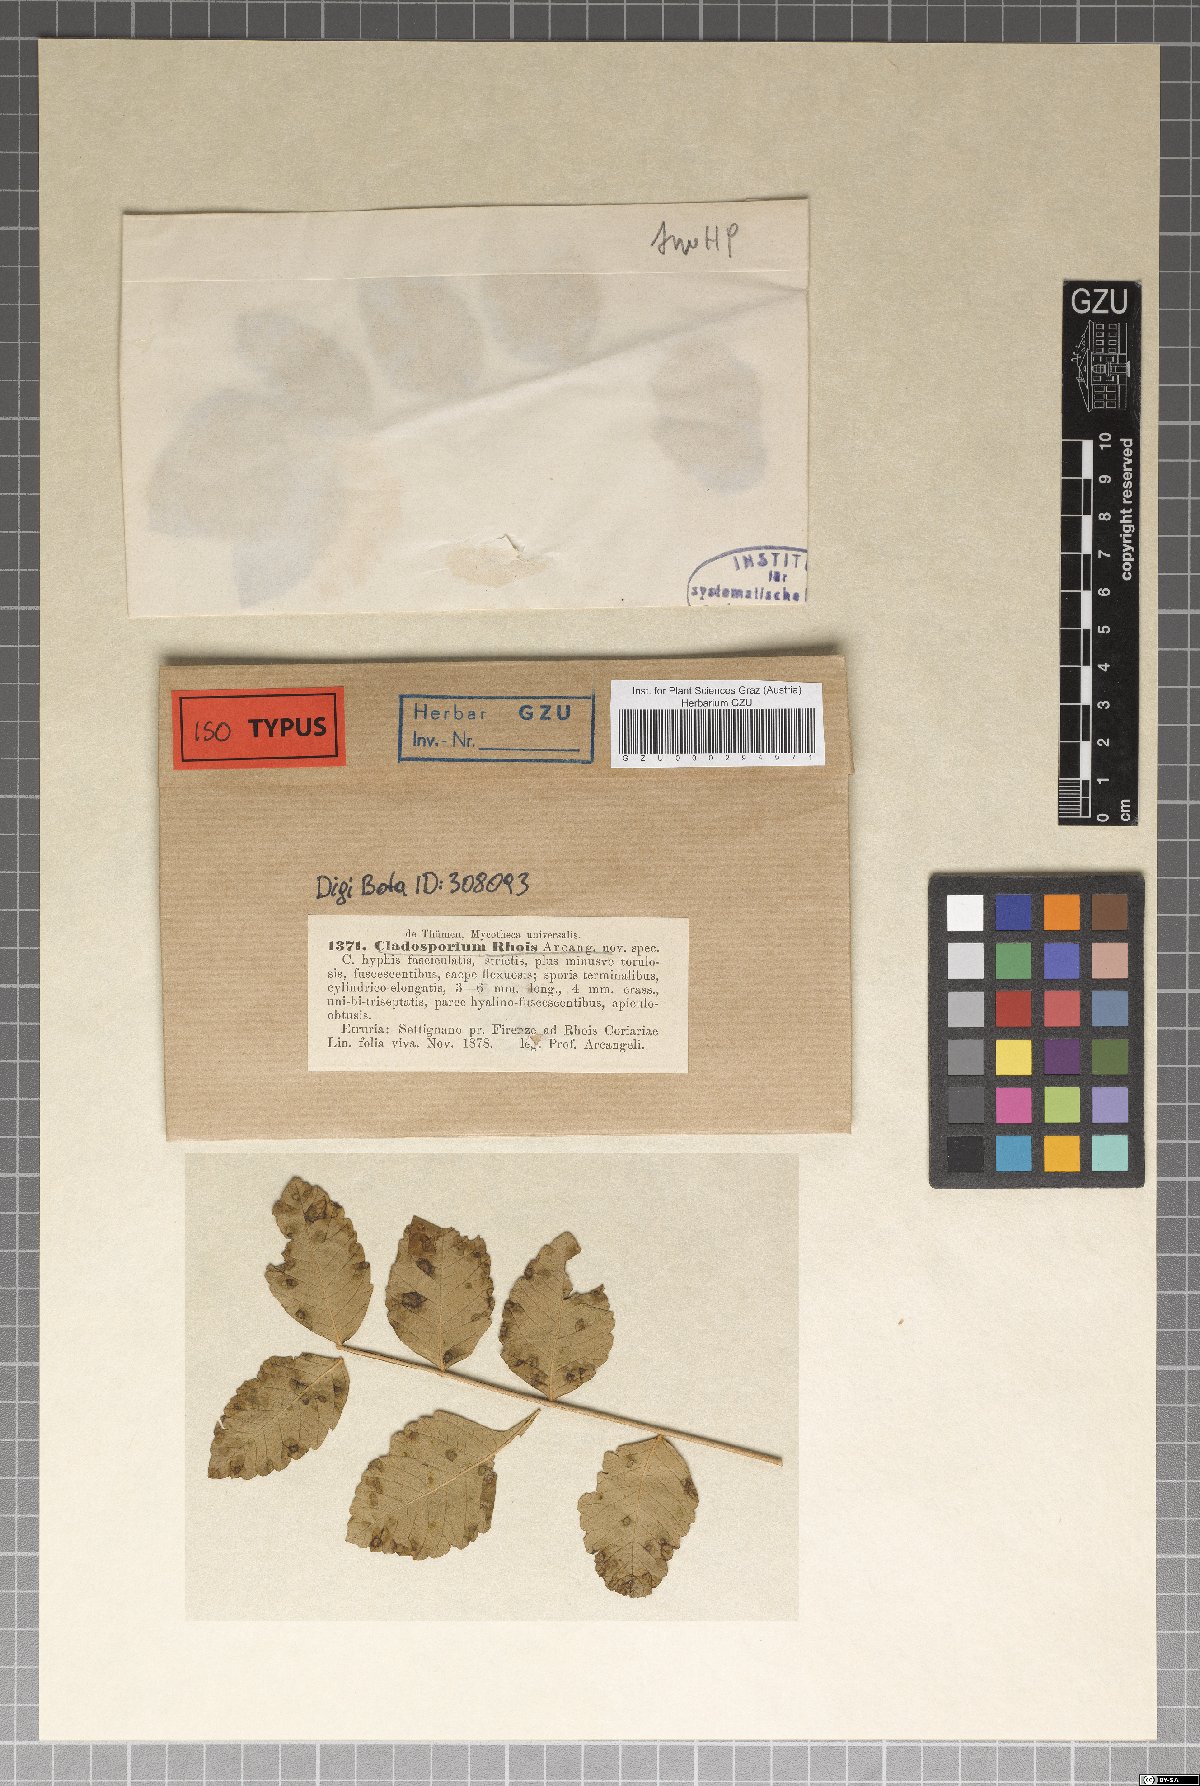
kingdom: Fungi
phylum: Ascomycota
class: Dothideomycetes
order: Capnodiales
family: Davidiellaceae
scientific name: Davidiellaceae
